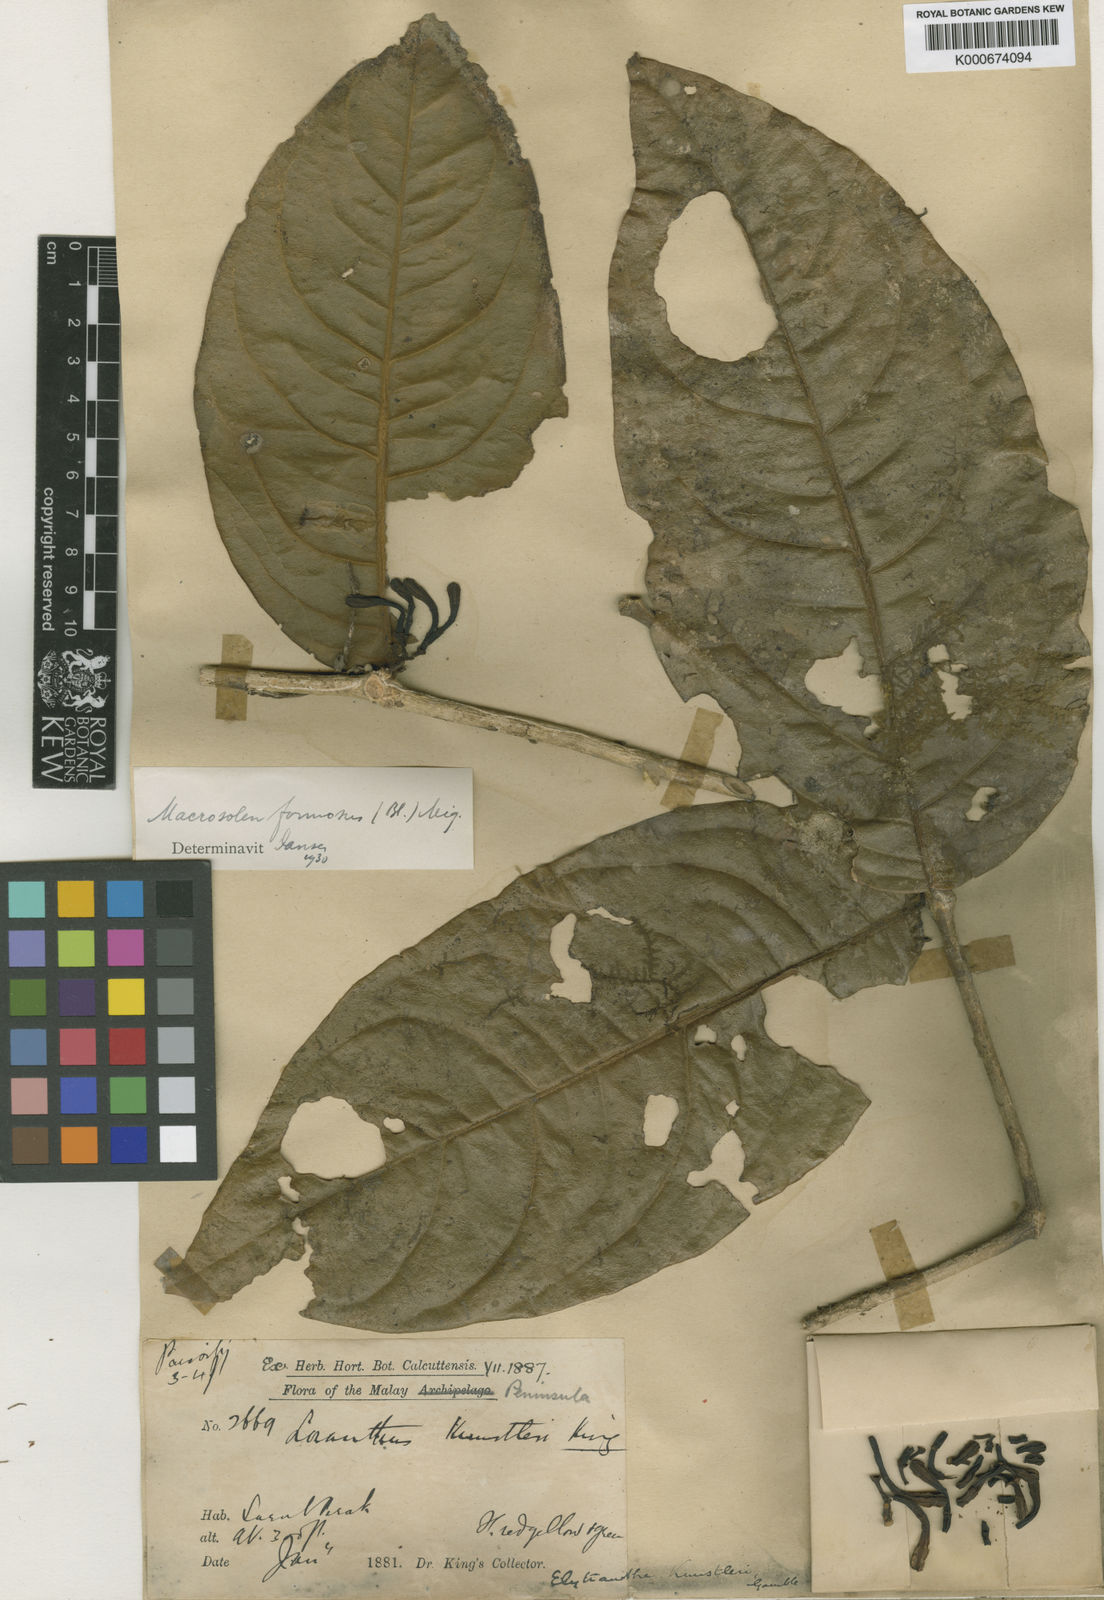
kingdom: Plantae
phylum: Tracheophyta
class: Magnoliopsida
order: Santalales
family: Loranthaceae
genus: Macrosolen
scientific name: Macrosolen formosus
